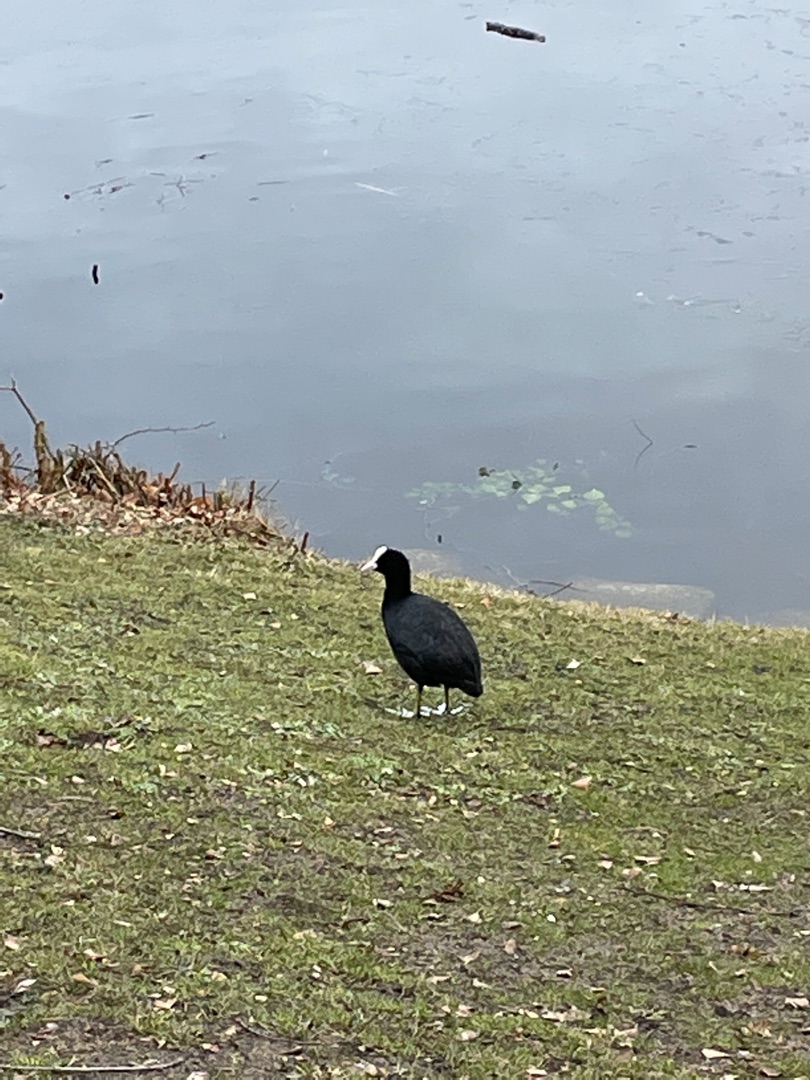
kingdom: Animalia
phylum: Chordata
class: Aves
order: Gruiformes
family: Rallidae
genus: Fulica
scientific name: Fulica atra
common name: Blishøne
